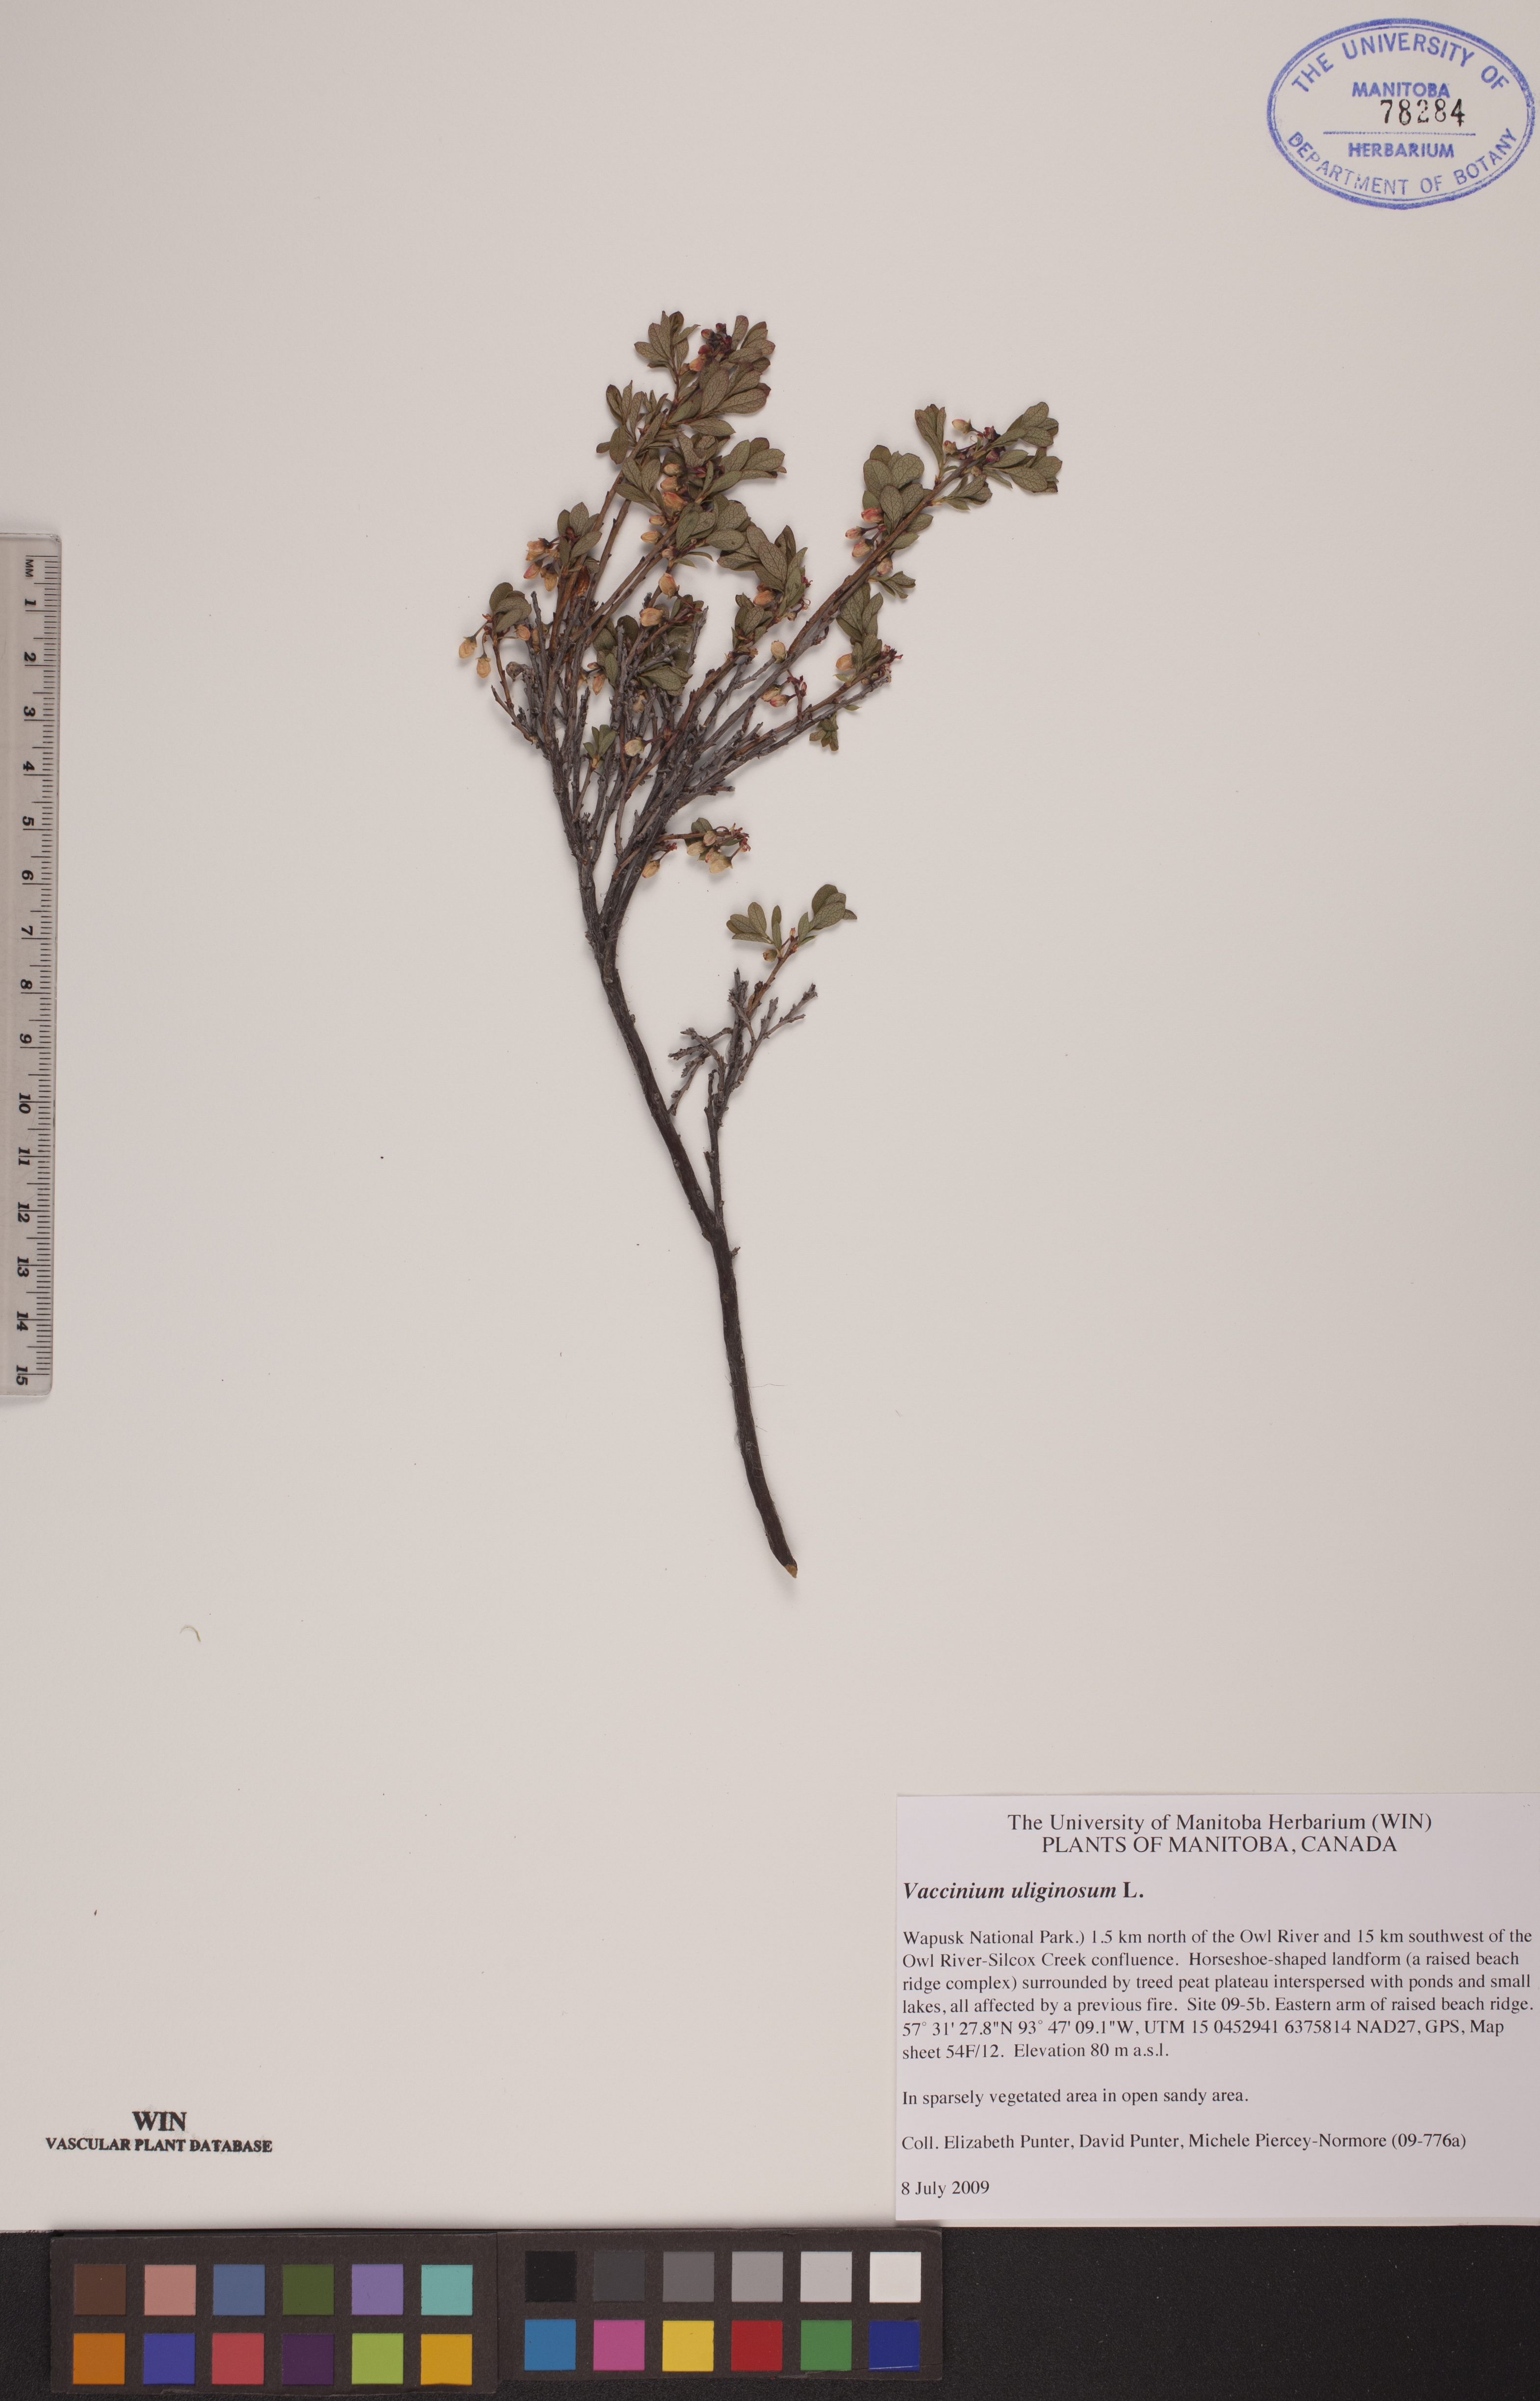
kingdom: Plantae
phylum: Tracheophyta
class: Magnoliopsida
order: Ericales
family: Ericaceae
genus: Vaccinium
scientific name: Vaccinium uliginosum
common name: Bog bilberry
